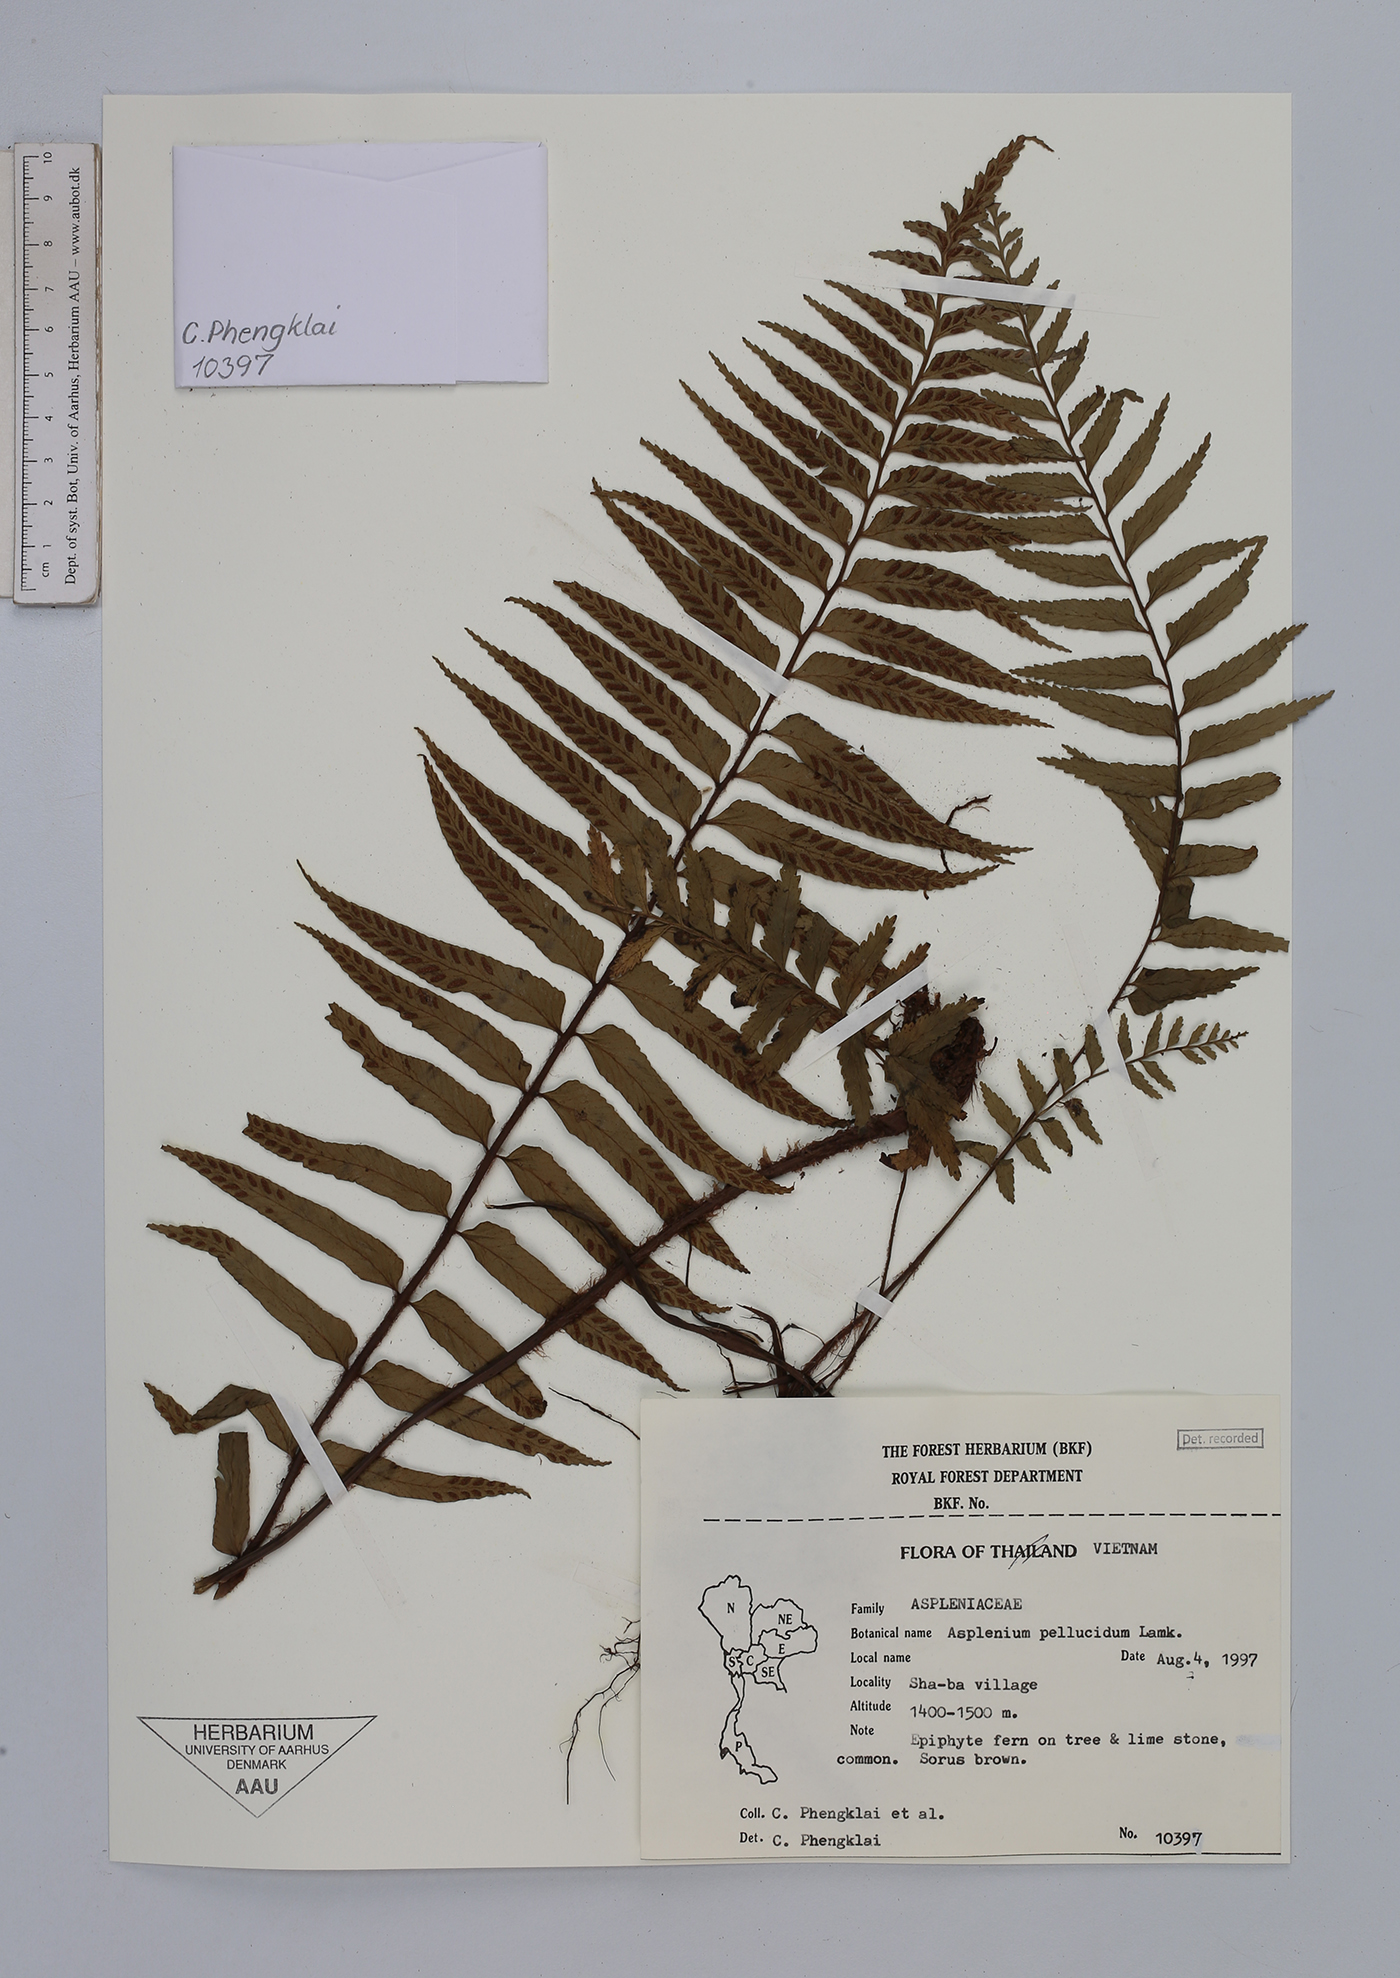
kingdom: Plantae
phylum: Tracheophyta
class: Polypodiopsida
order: Polypodiales
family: Aspleniaceae
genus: Asplenium
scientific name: Asplenium pellucidum
